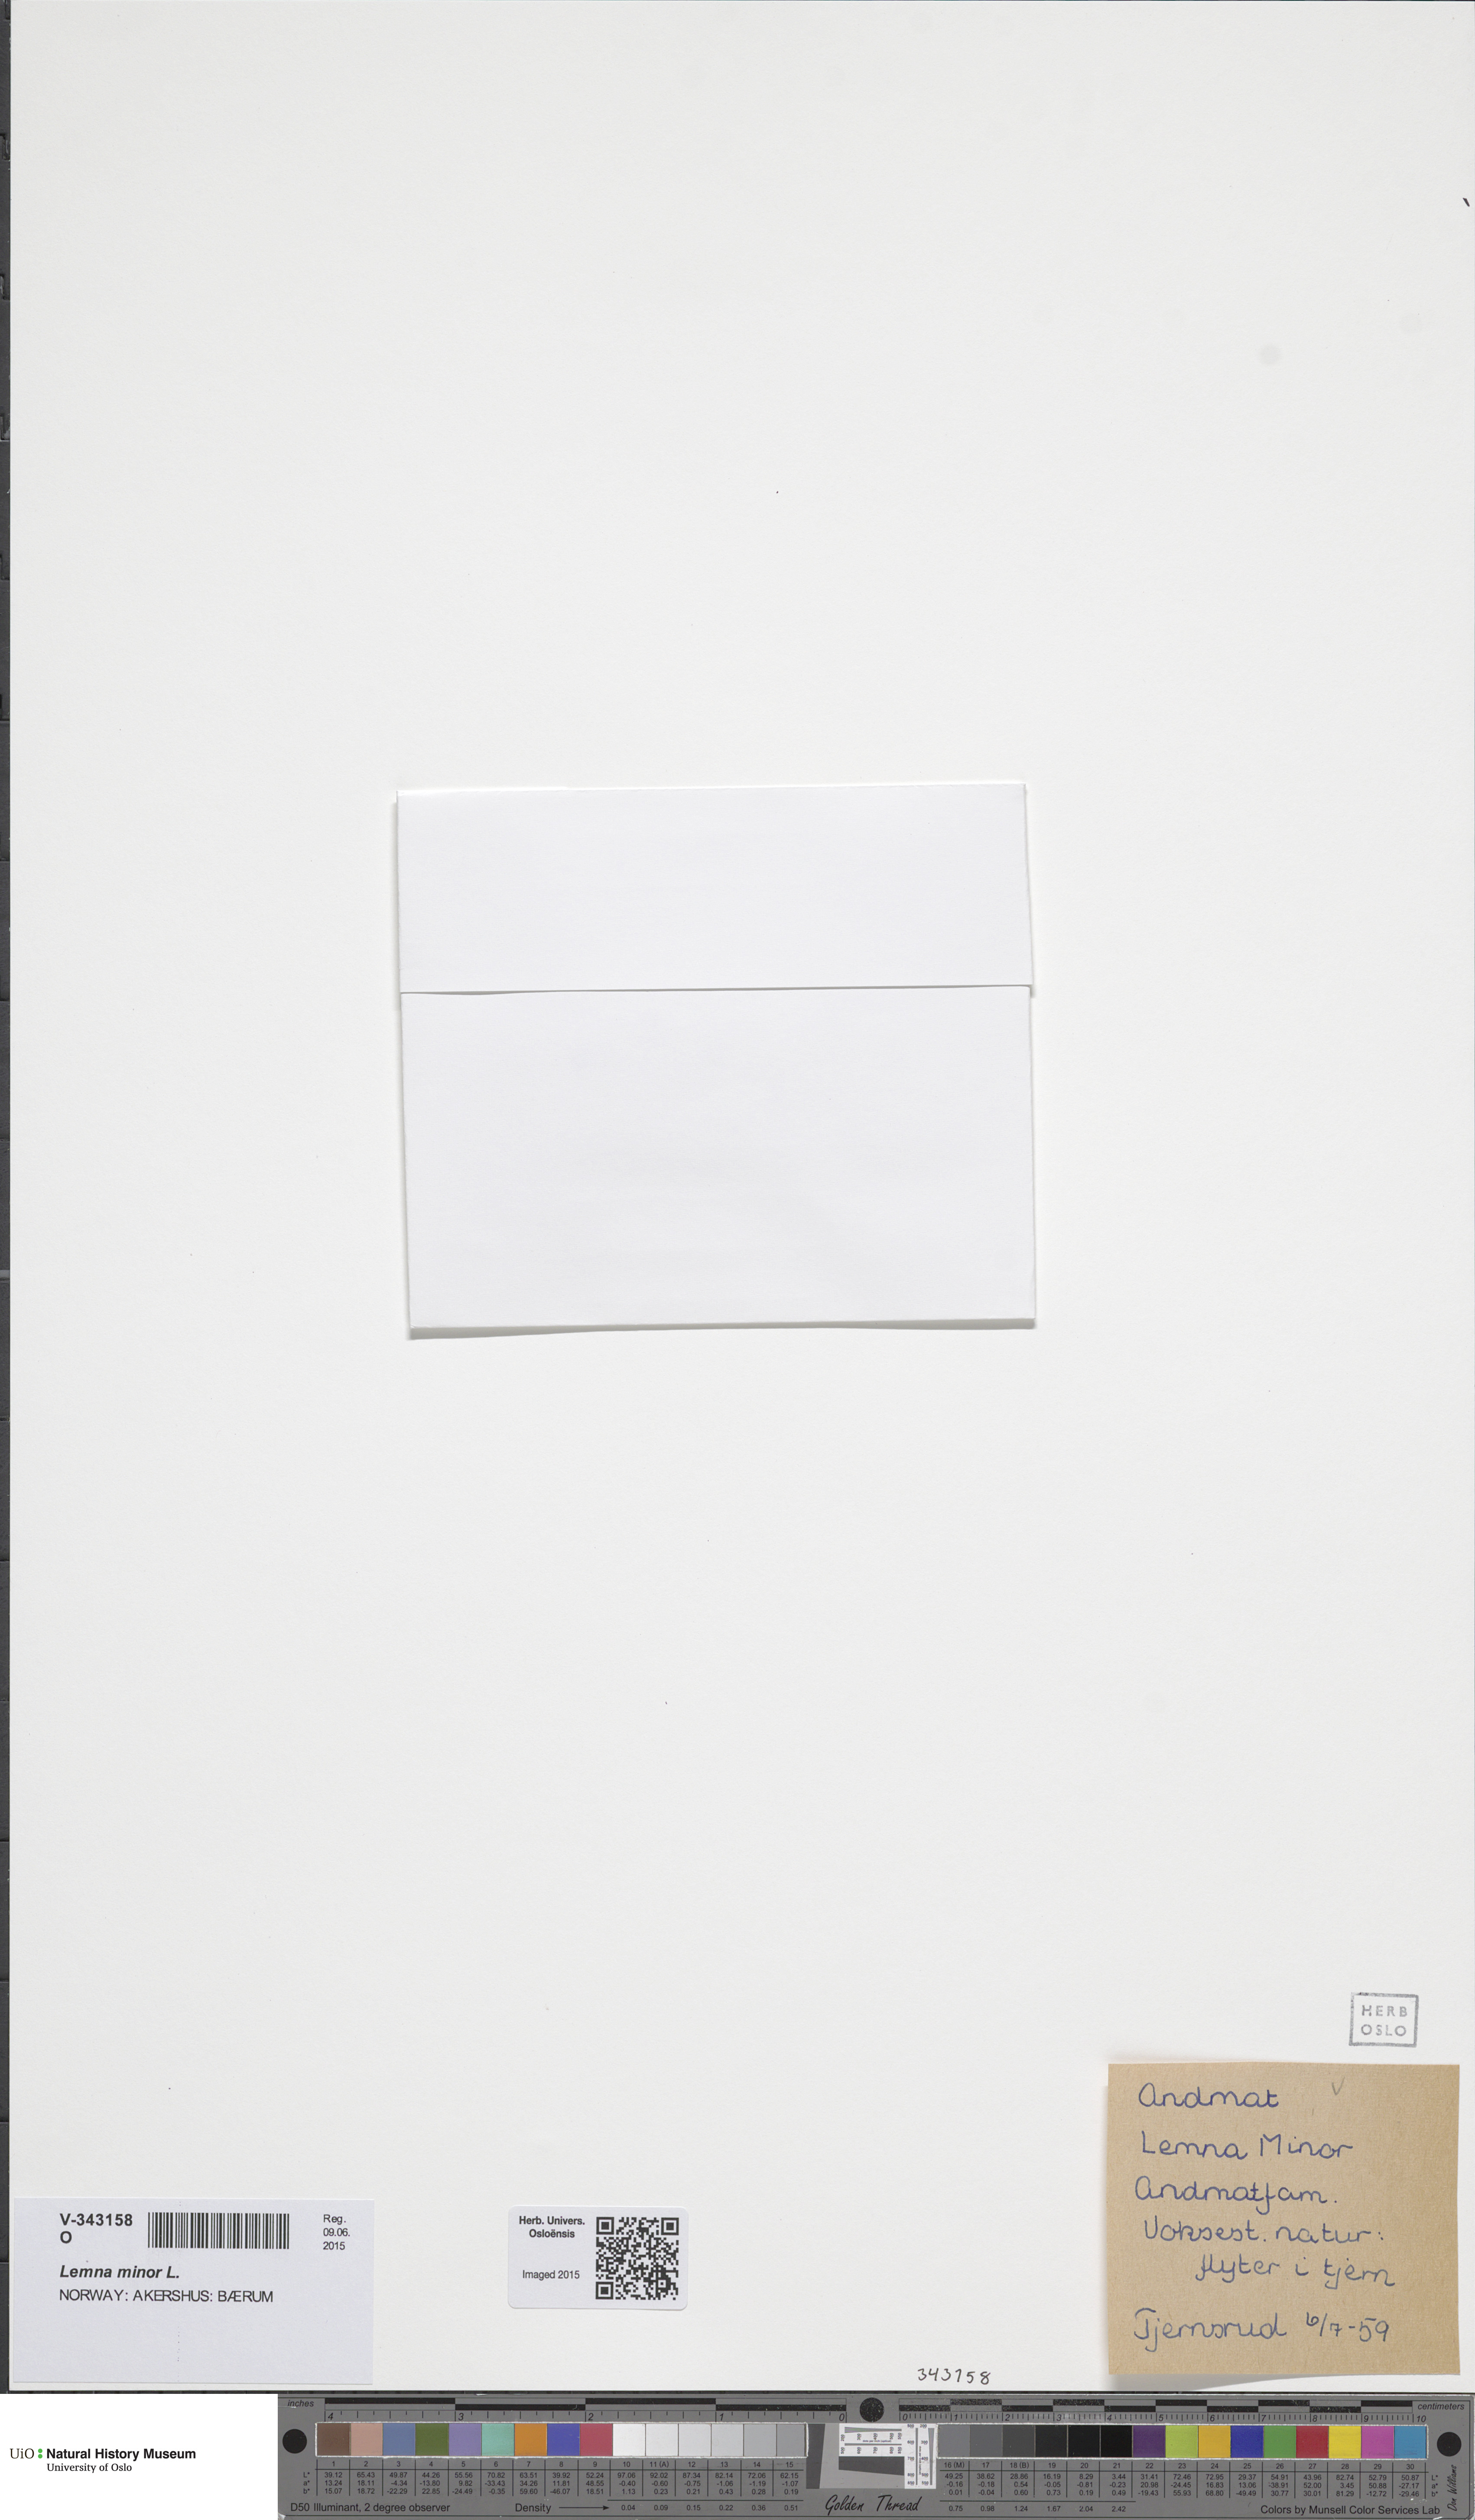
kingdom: Plantae
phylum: Tracheophyta
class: Liliopsida
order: Alismatales
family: Araceae
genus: Lemna
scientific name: Lemna minor
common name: Common duckweed
